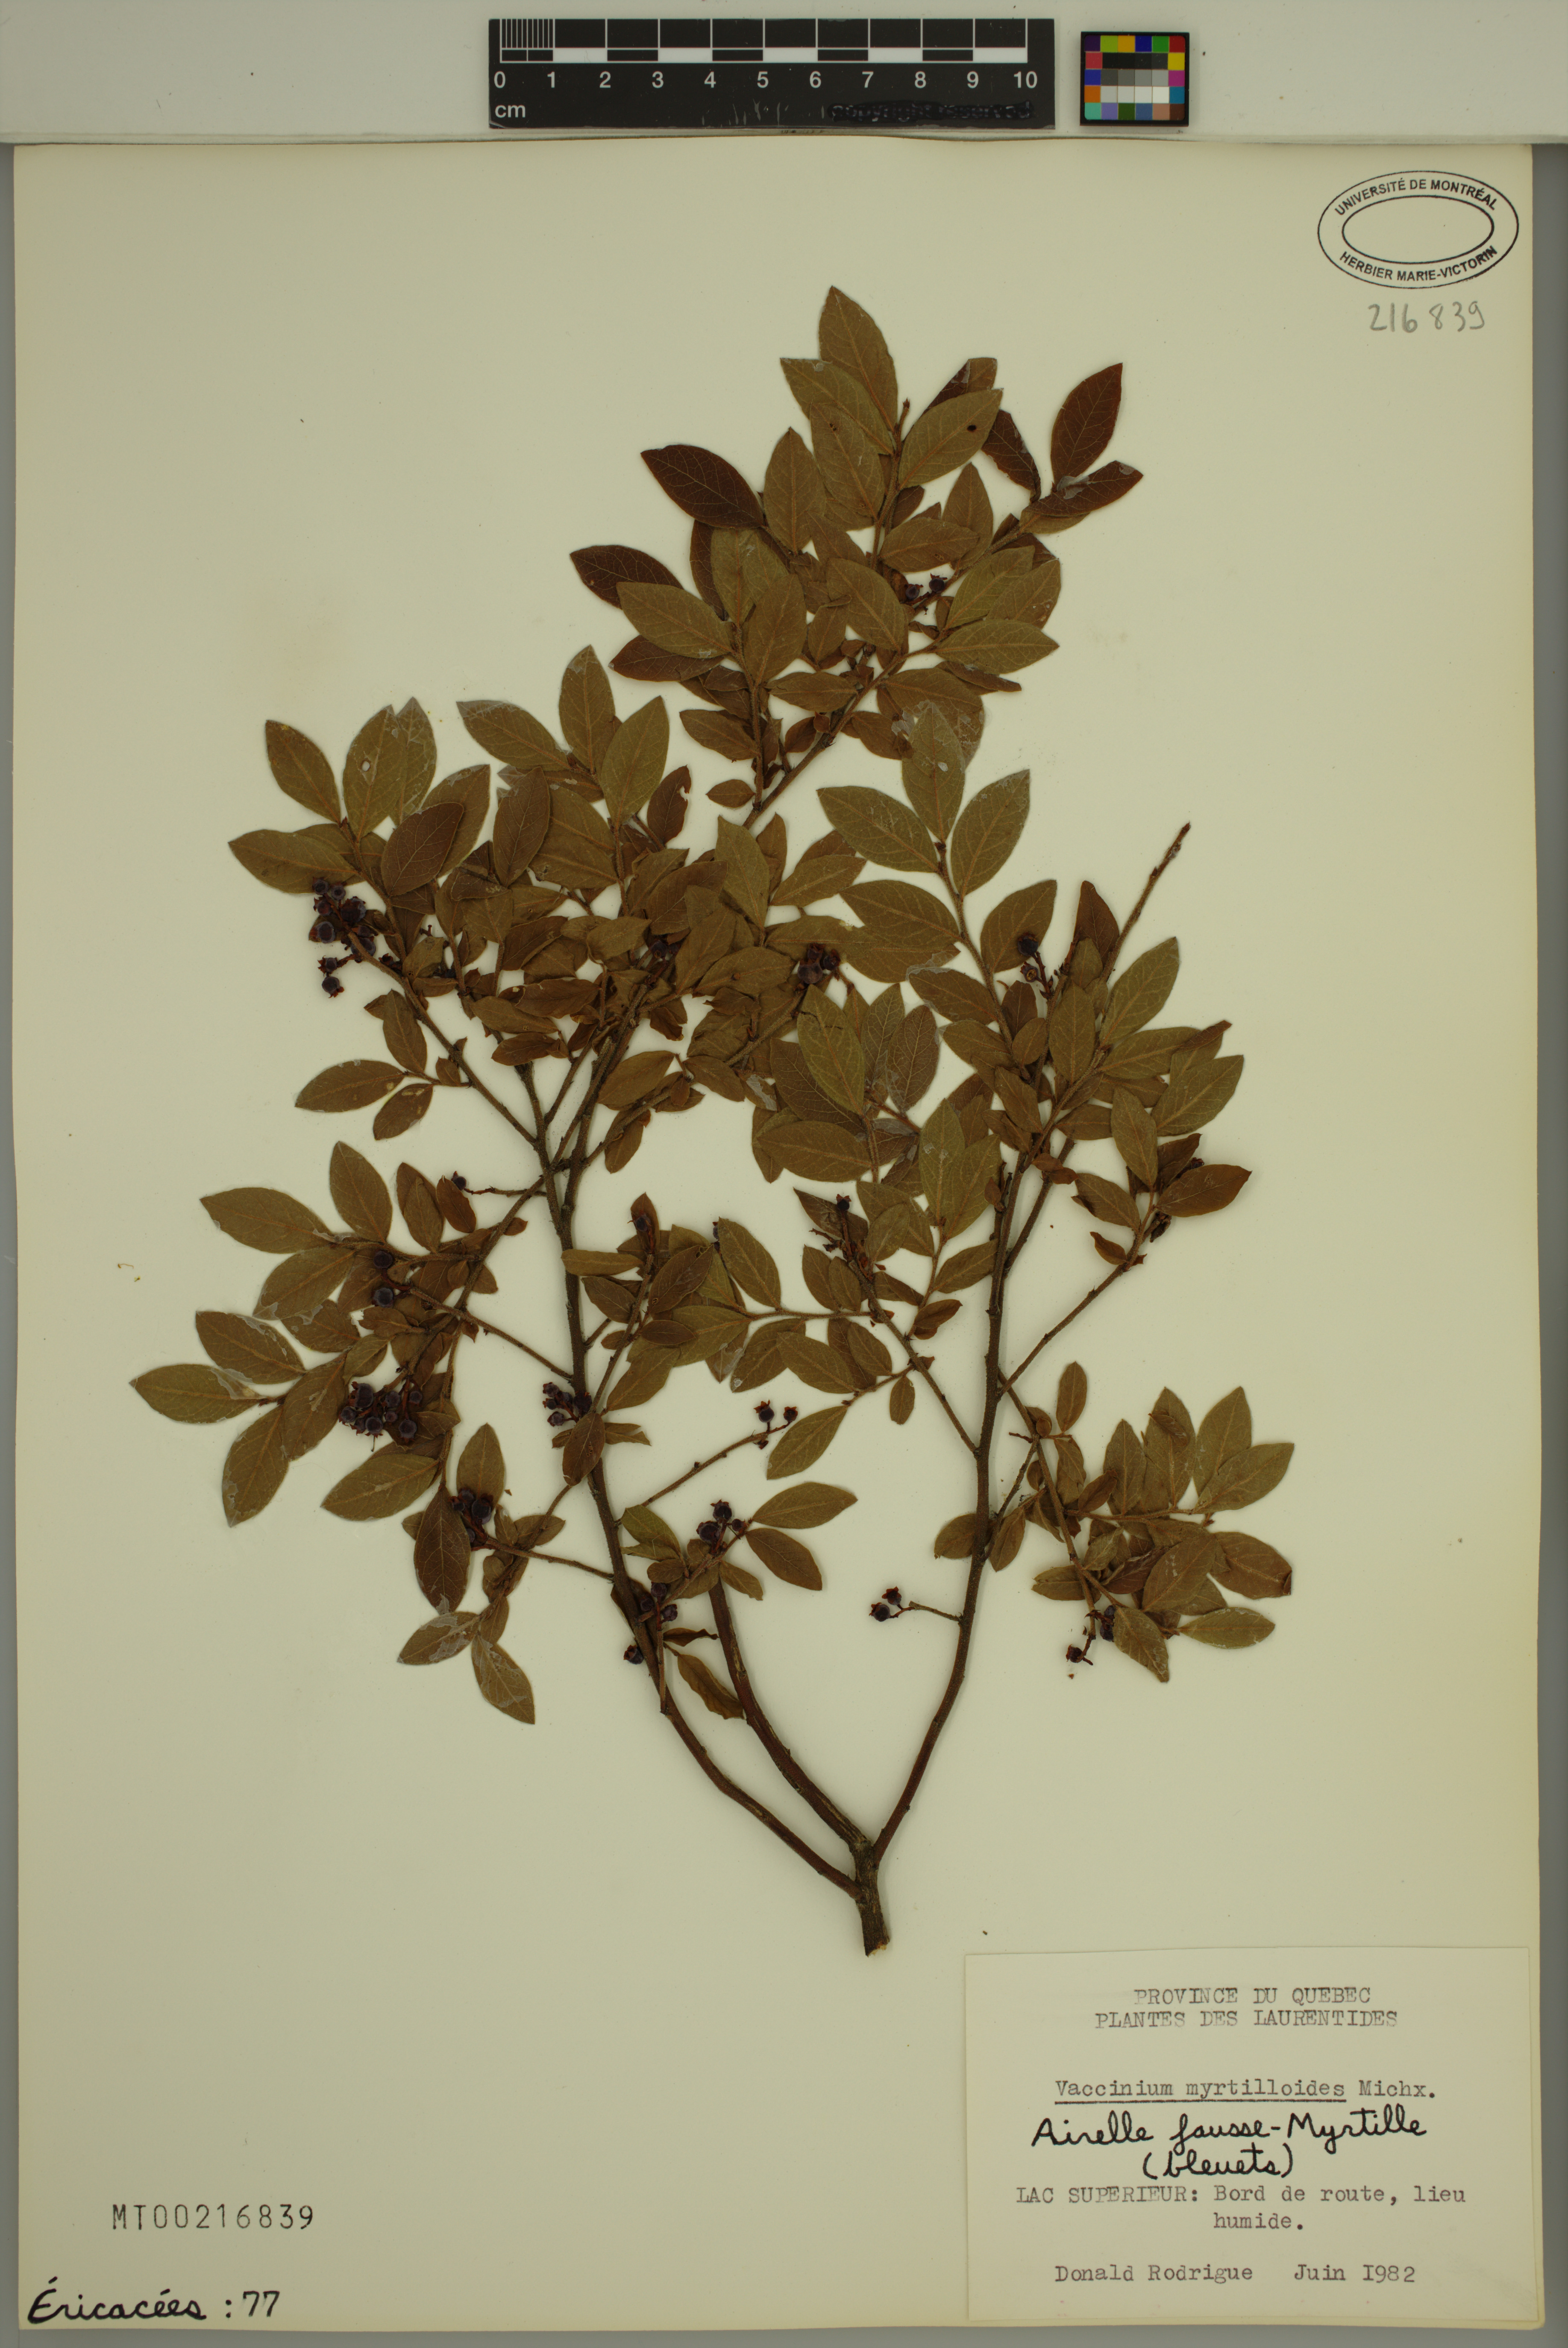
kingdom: Plantae
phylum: Tracheophyta
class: Magnoliopsida
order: Ericales
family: Ericaceae
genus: Vaccinium
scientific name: Vaccinium myrtilloides
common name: Canada blueberry
